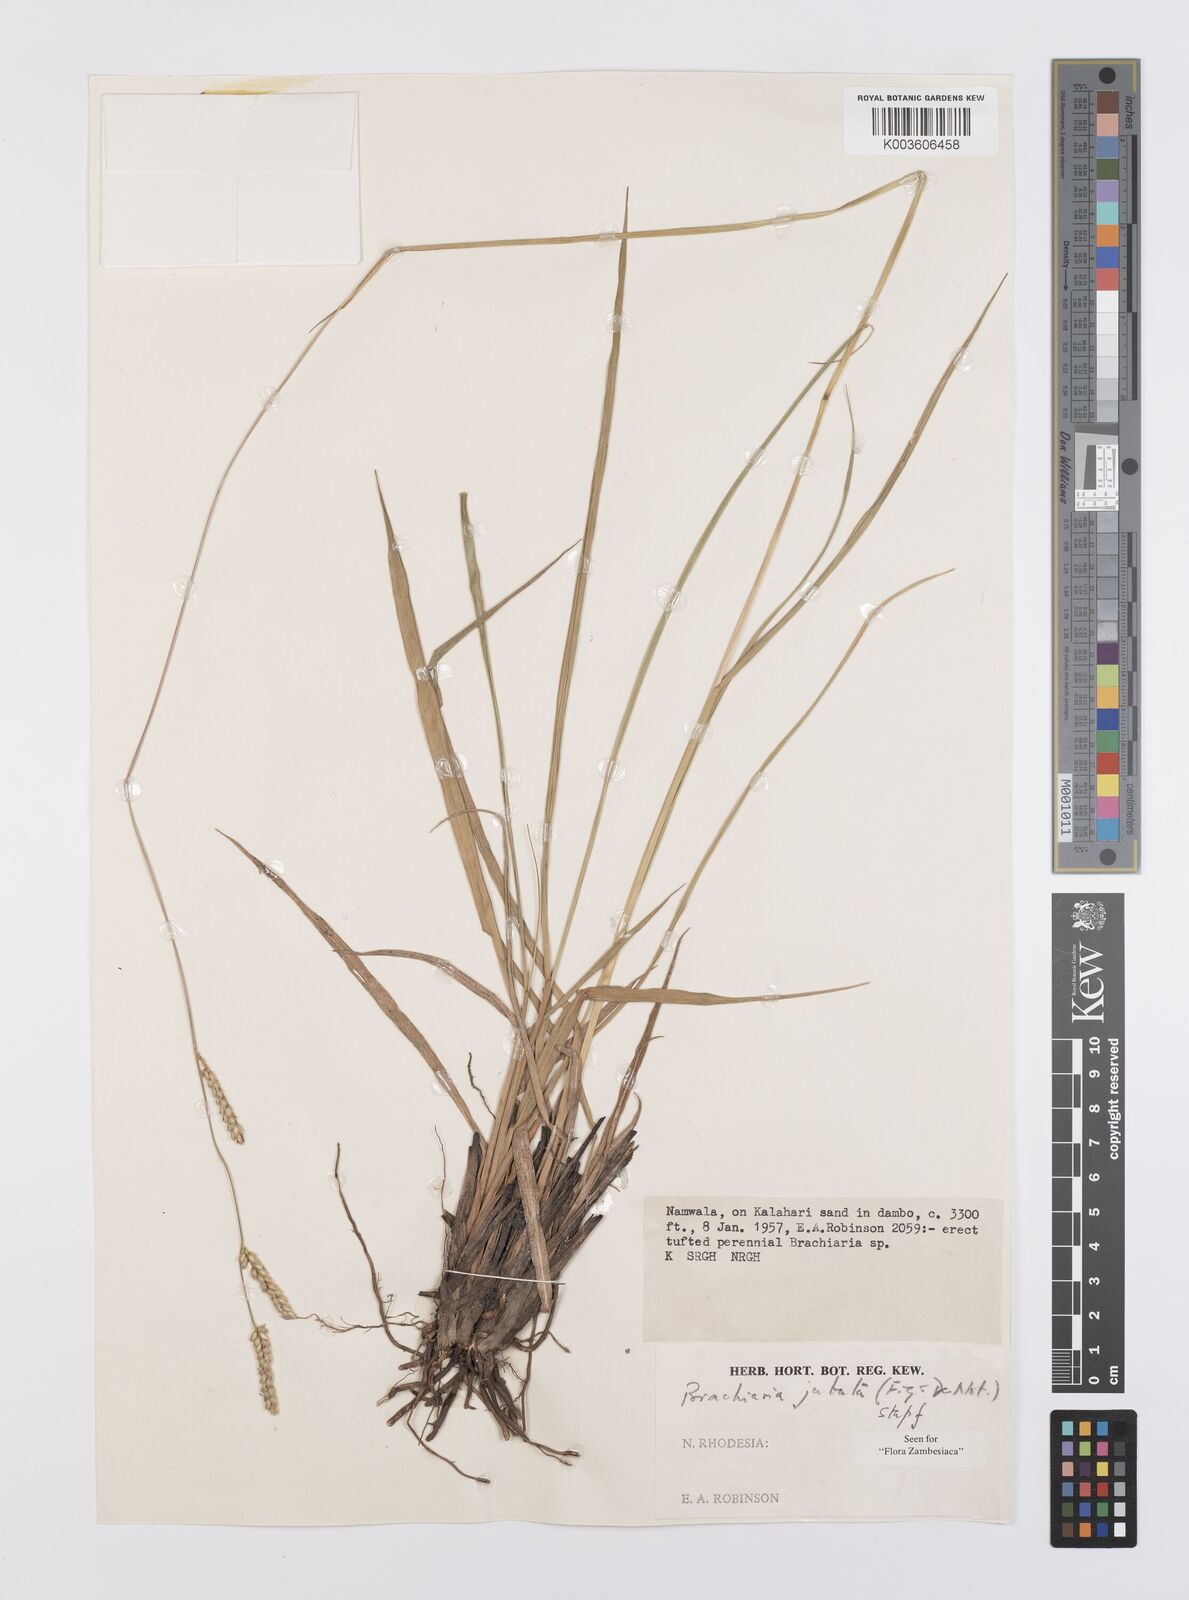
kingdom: Plantae
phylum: Tracheophyta
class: Liliopsida
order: Poales
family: Poaceae
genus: Urochloa
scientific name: Urochloa jubata
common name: Buffalograss
